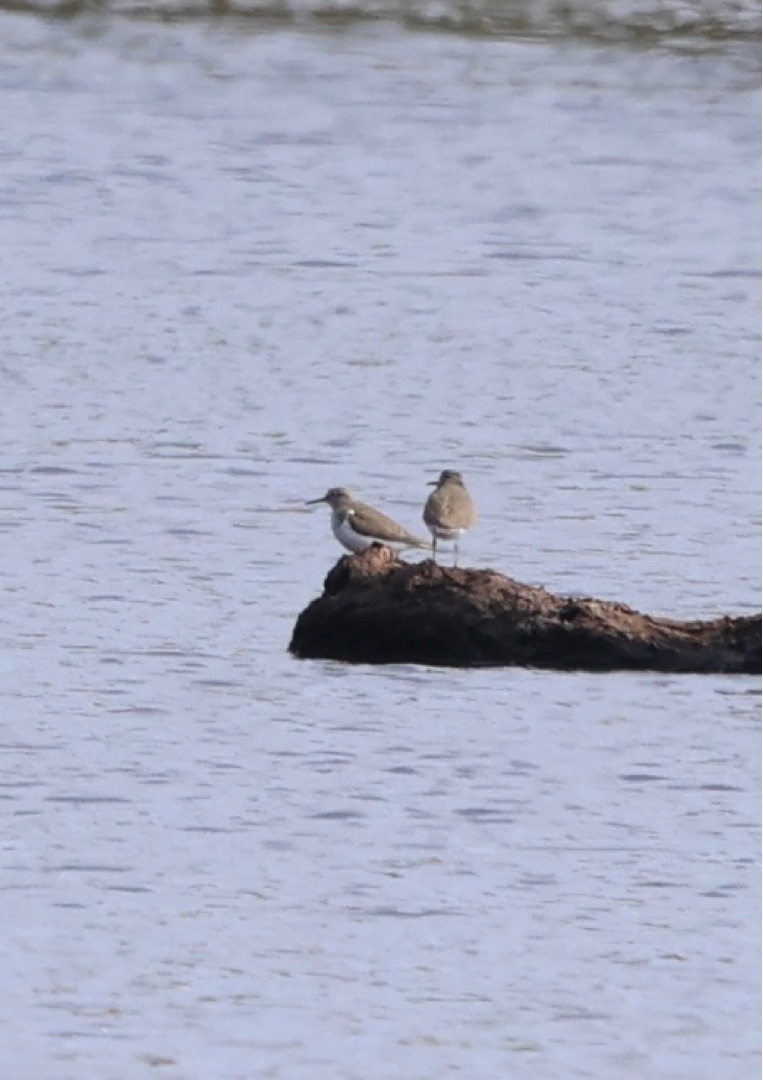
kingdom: Animalia
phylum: Chordata
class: Aves
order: Charadriiformes
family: Scolopacidae
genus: Actitis
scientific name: Actitis hypoleucos
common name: Mudderklire
